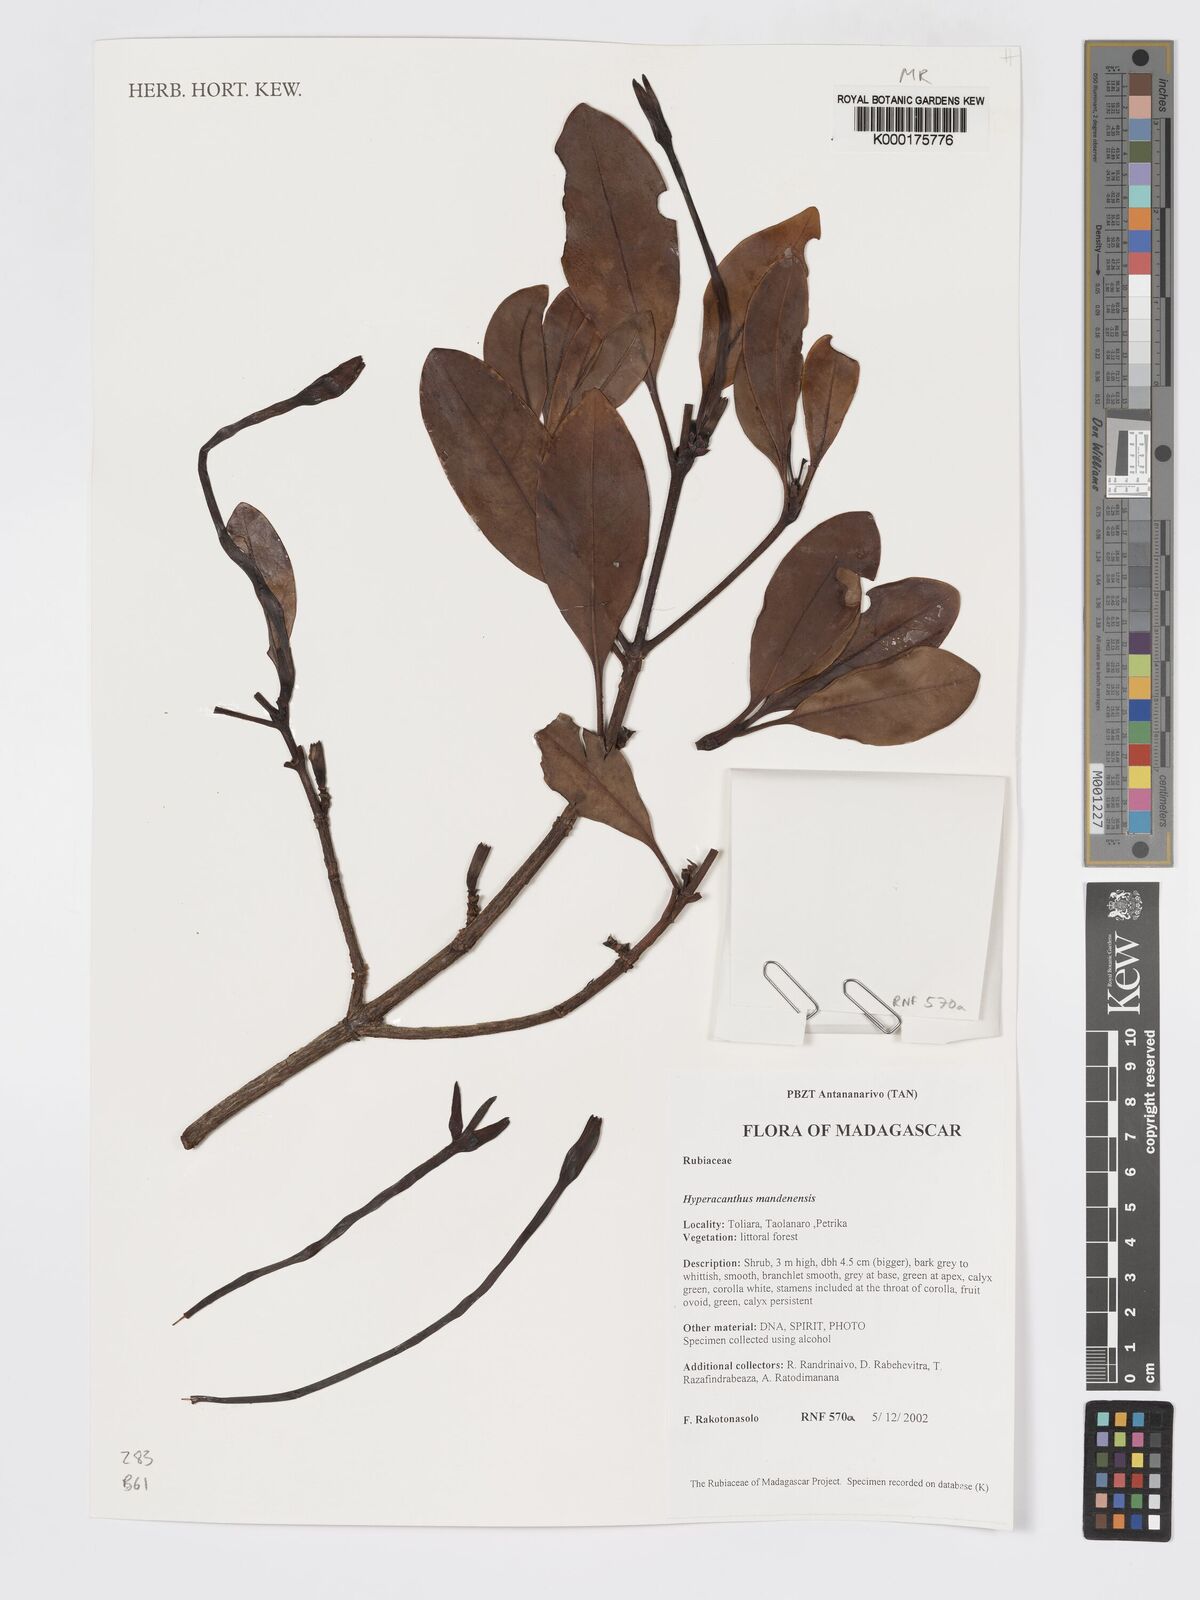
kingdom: Plantae
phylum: Tracheophyta
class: Magnoliopsida
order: Gentianales
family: Rubiaceae
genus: Hyperacanthus
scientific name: Hyperacanthus mandenensis
